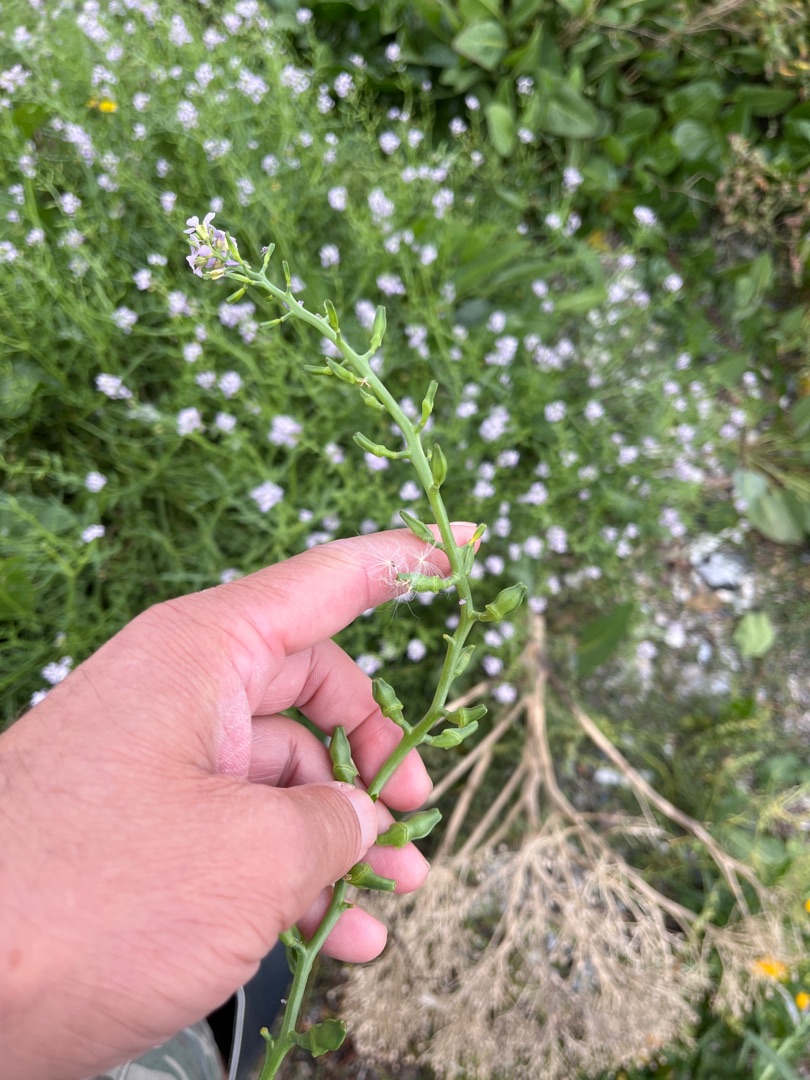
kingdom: Plantae
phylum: Tracheophyta
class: Magnoliopsida
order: Brassicales
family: Brassicaceae
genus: Cakile
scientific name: Cakile maritima
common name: Strandsennep
